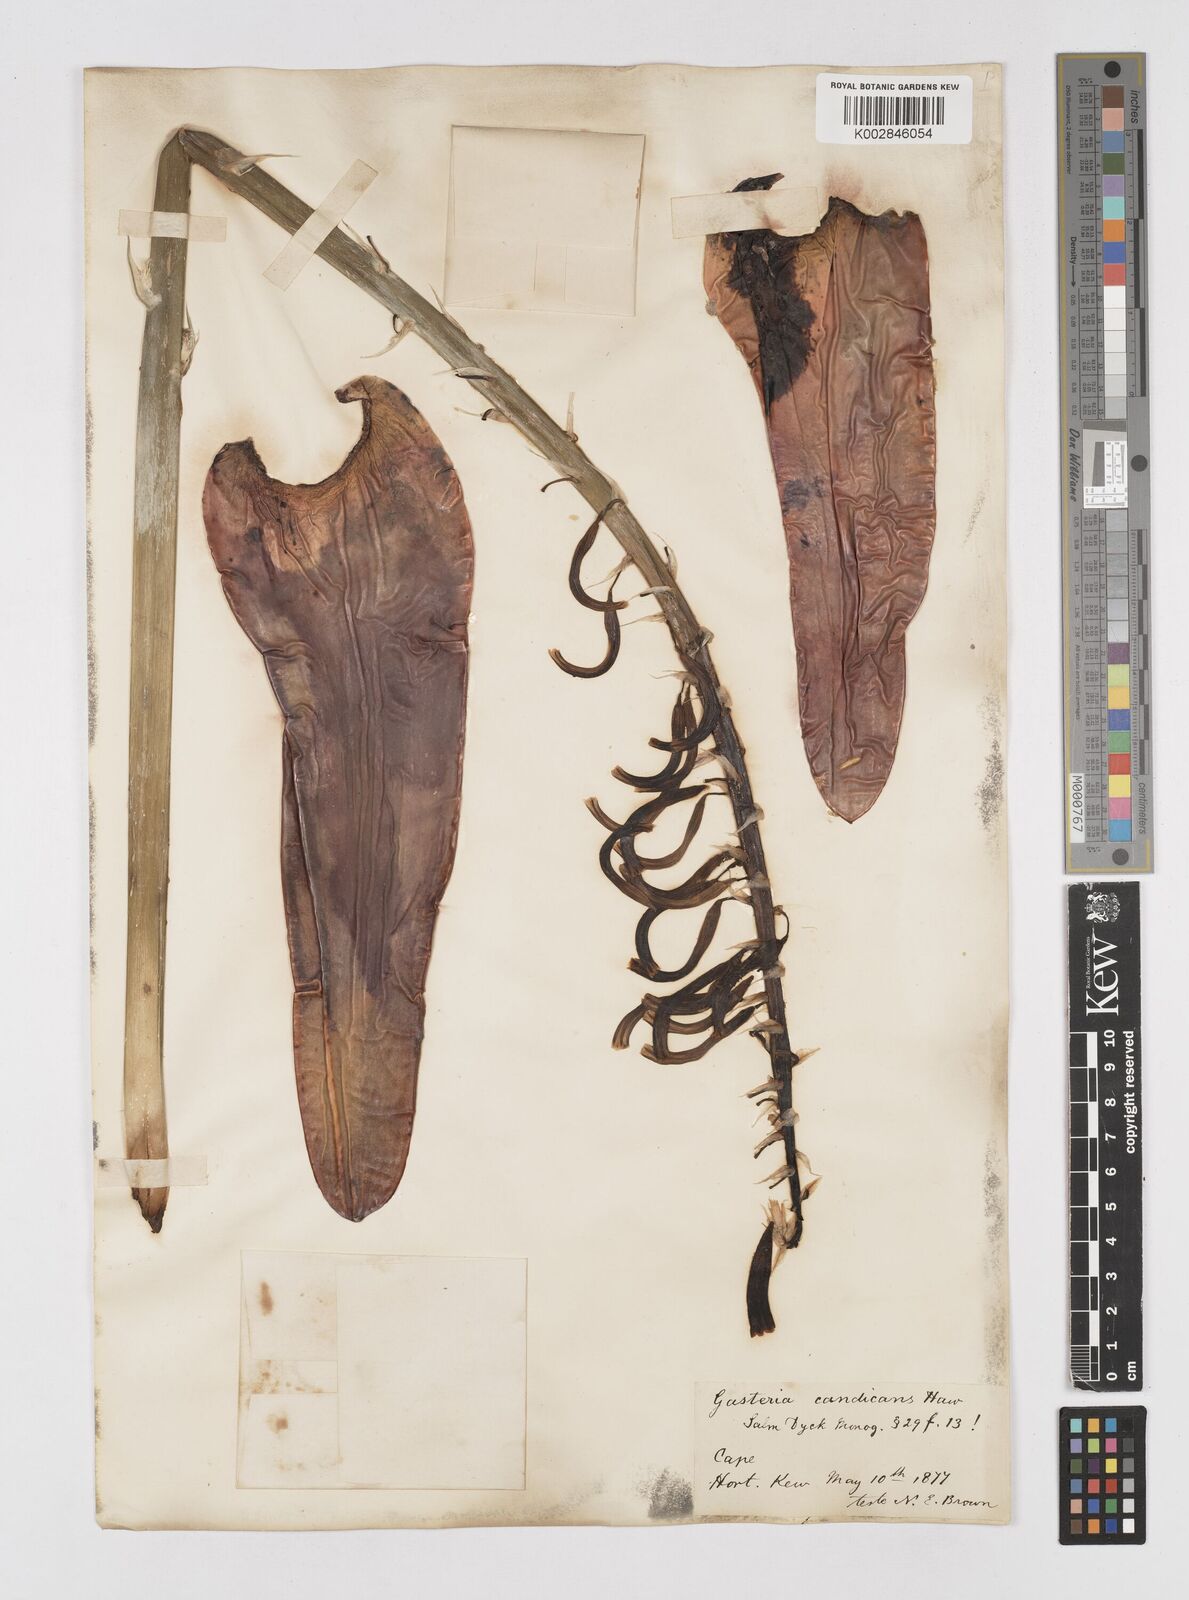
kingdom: Plantae
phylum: Tracheophyta
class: Liliopsida
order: Asparagales
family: Asphodelaceae
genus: Gasteria
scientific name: Gasteria acinacifolia
